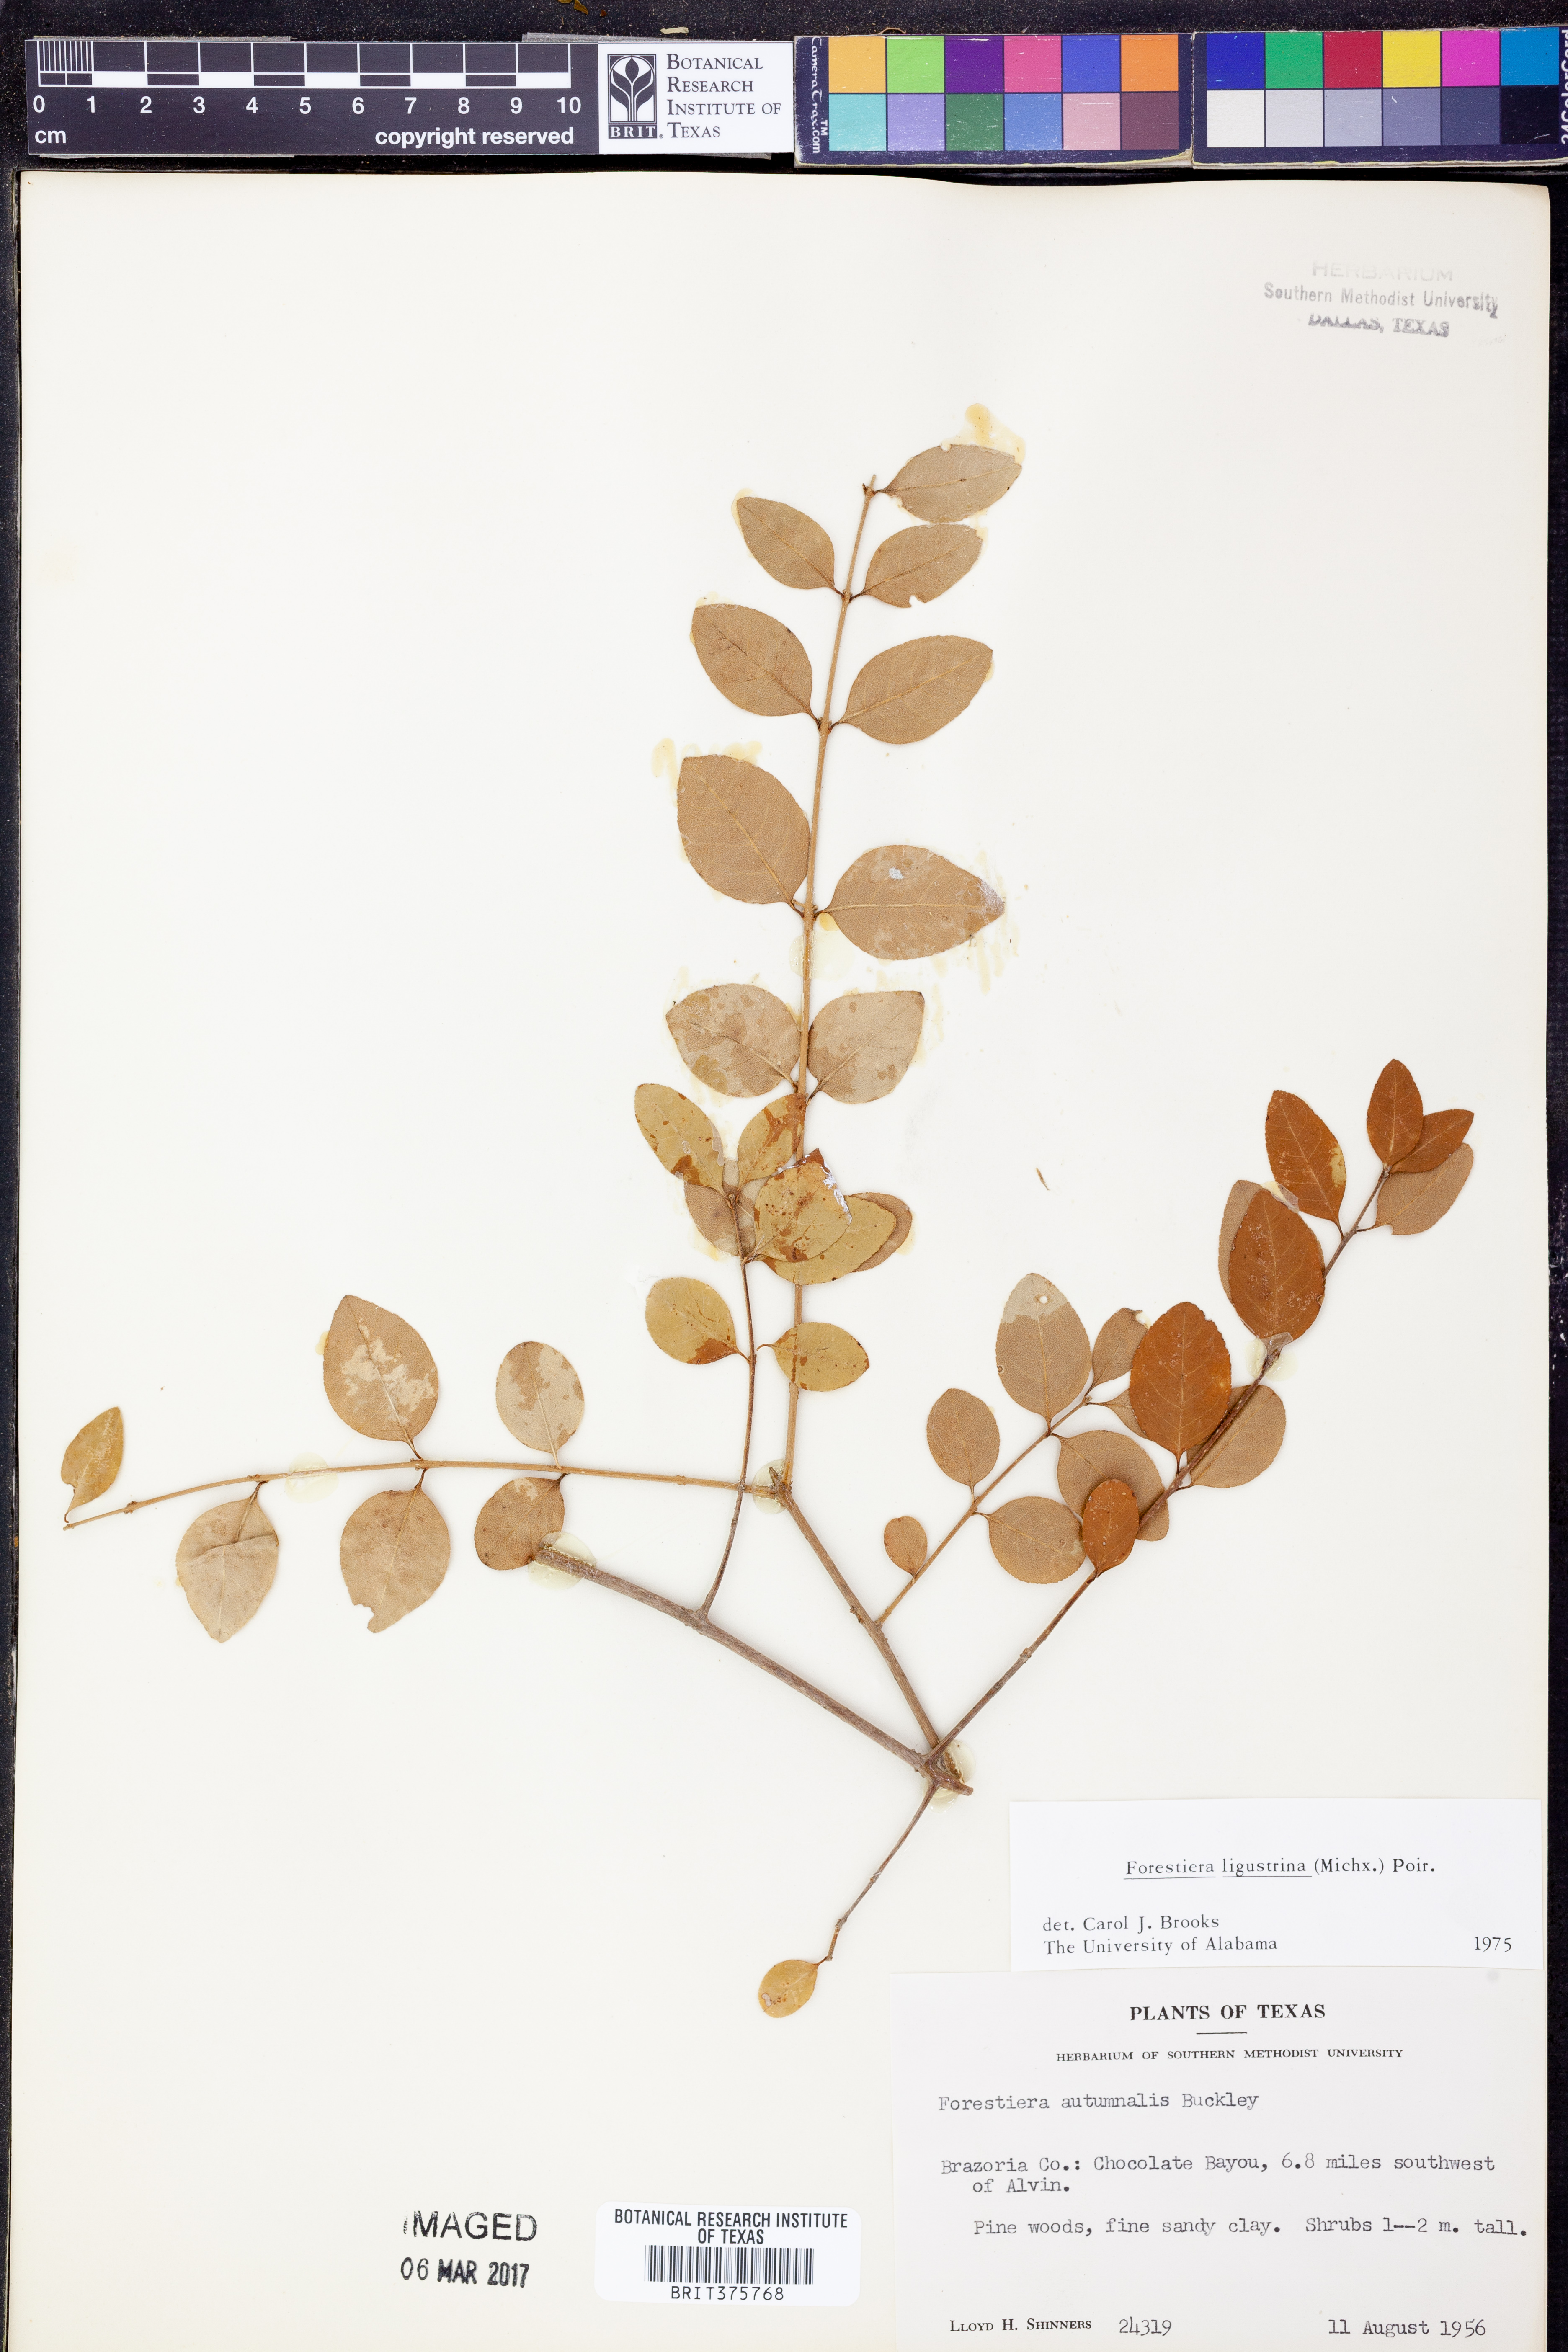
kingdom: Plantae
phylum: Tracheophyta
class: Magnoliopsida
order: Lamiales
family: Oleaceae
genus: Forestiera
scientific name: Forestiera ligustrina
